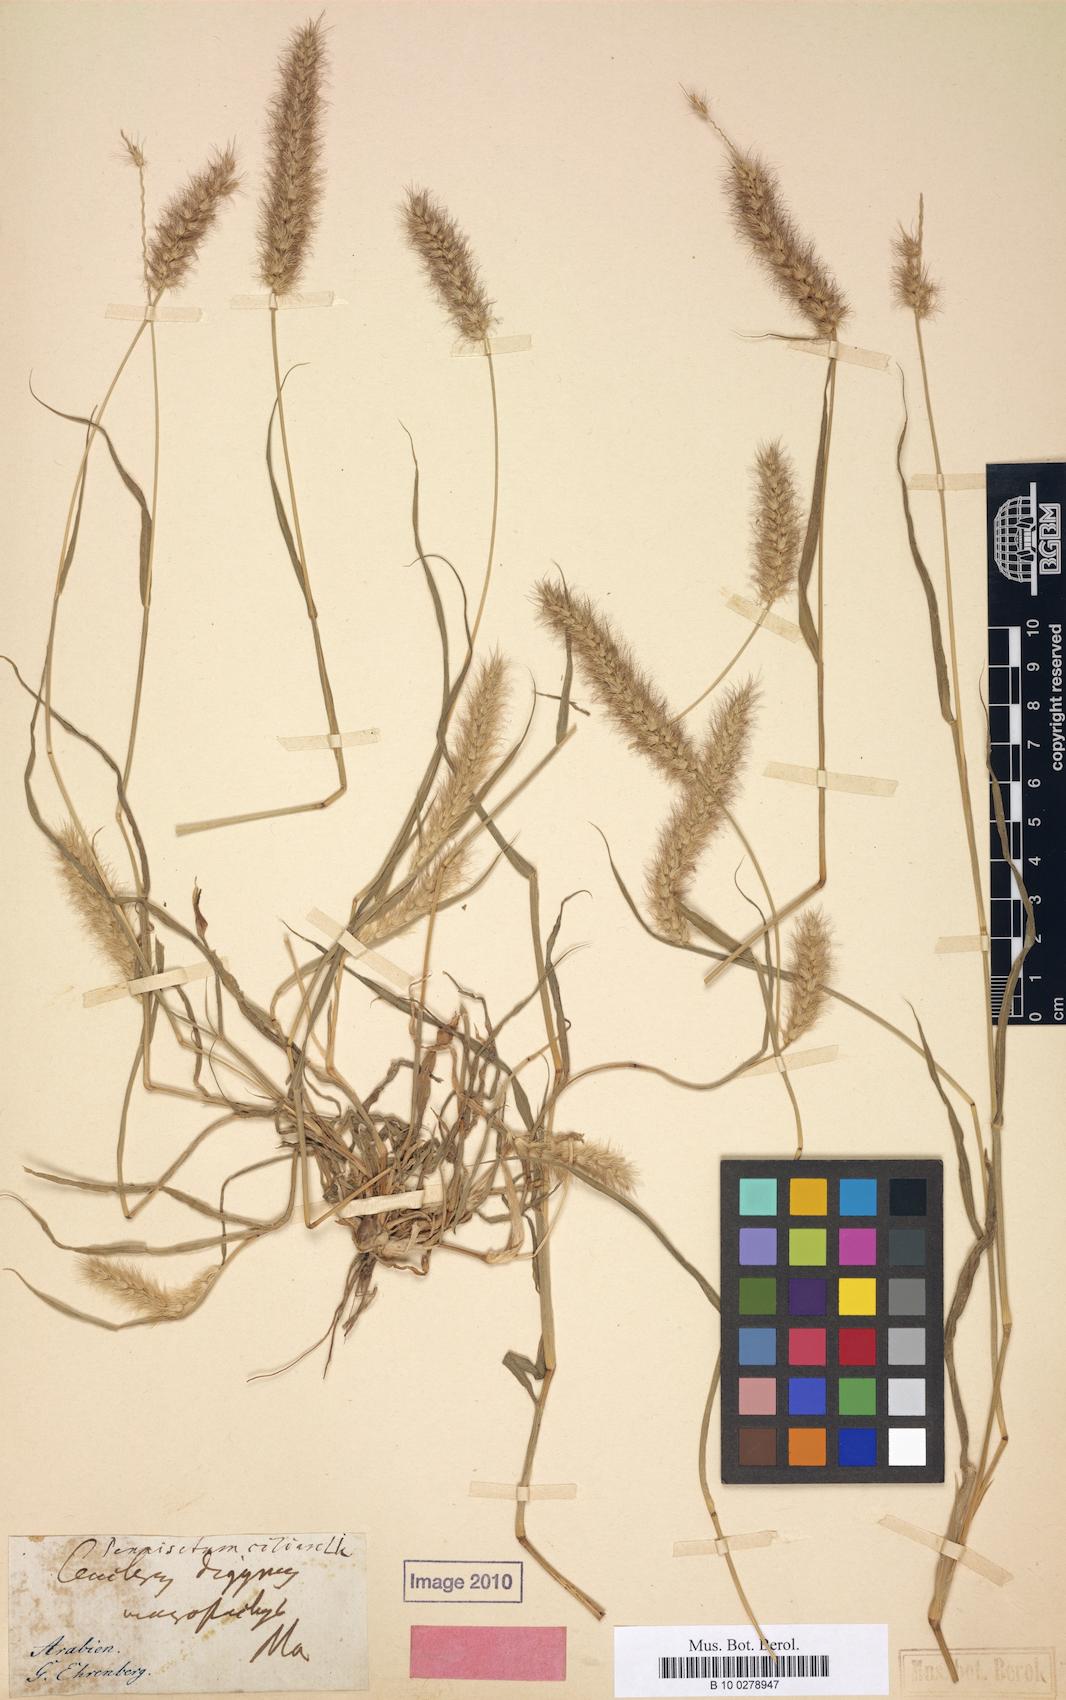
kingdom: Plantae
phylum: Tracheophyta
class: Liliopsida
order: Poales
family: Poaceae
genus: Cenchrus
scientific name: Cenchrus pennisetiformis
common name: Cloncurry
